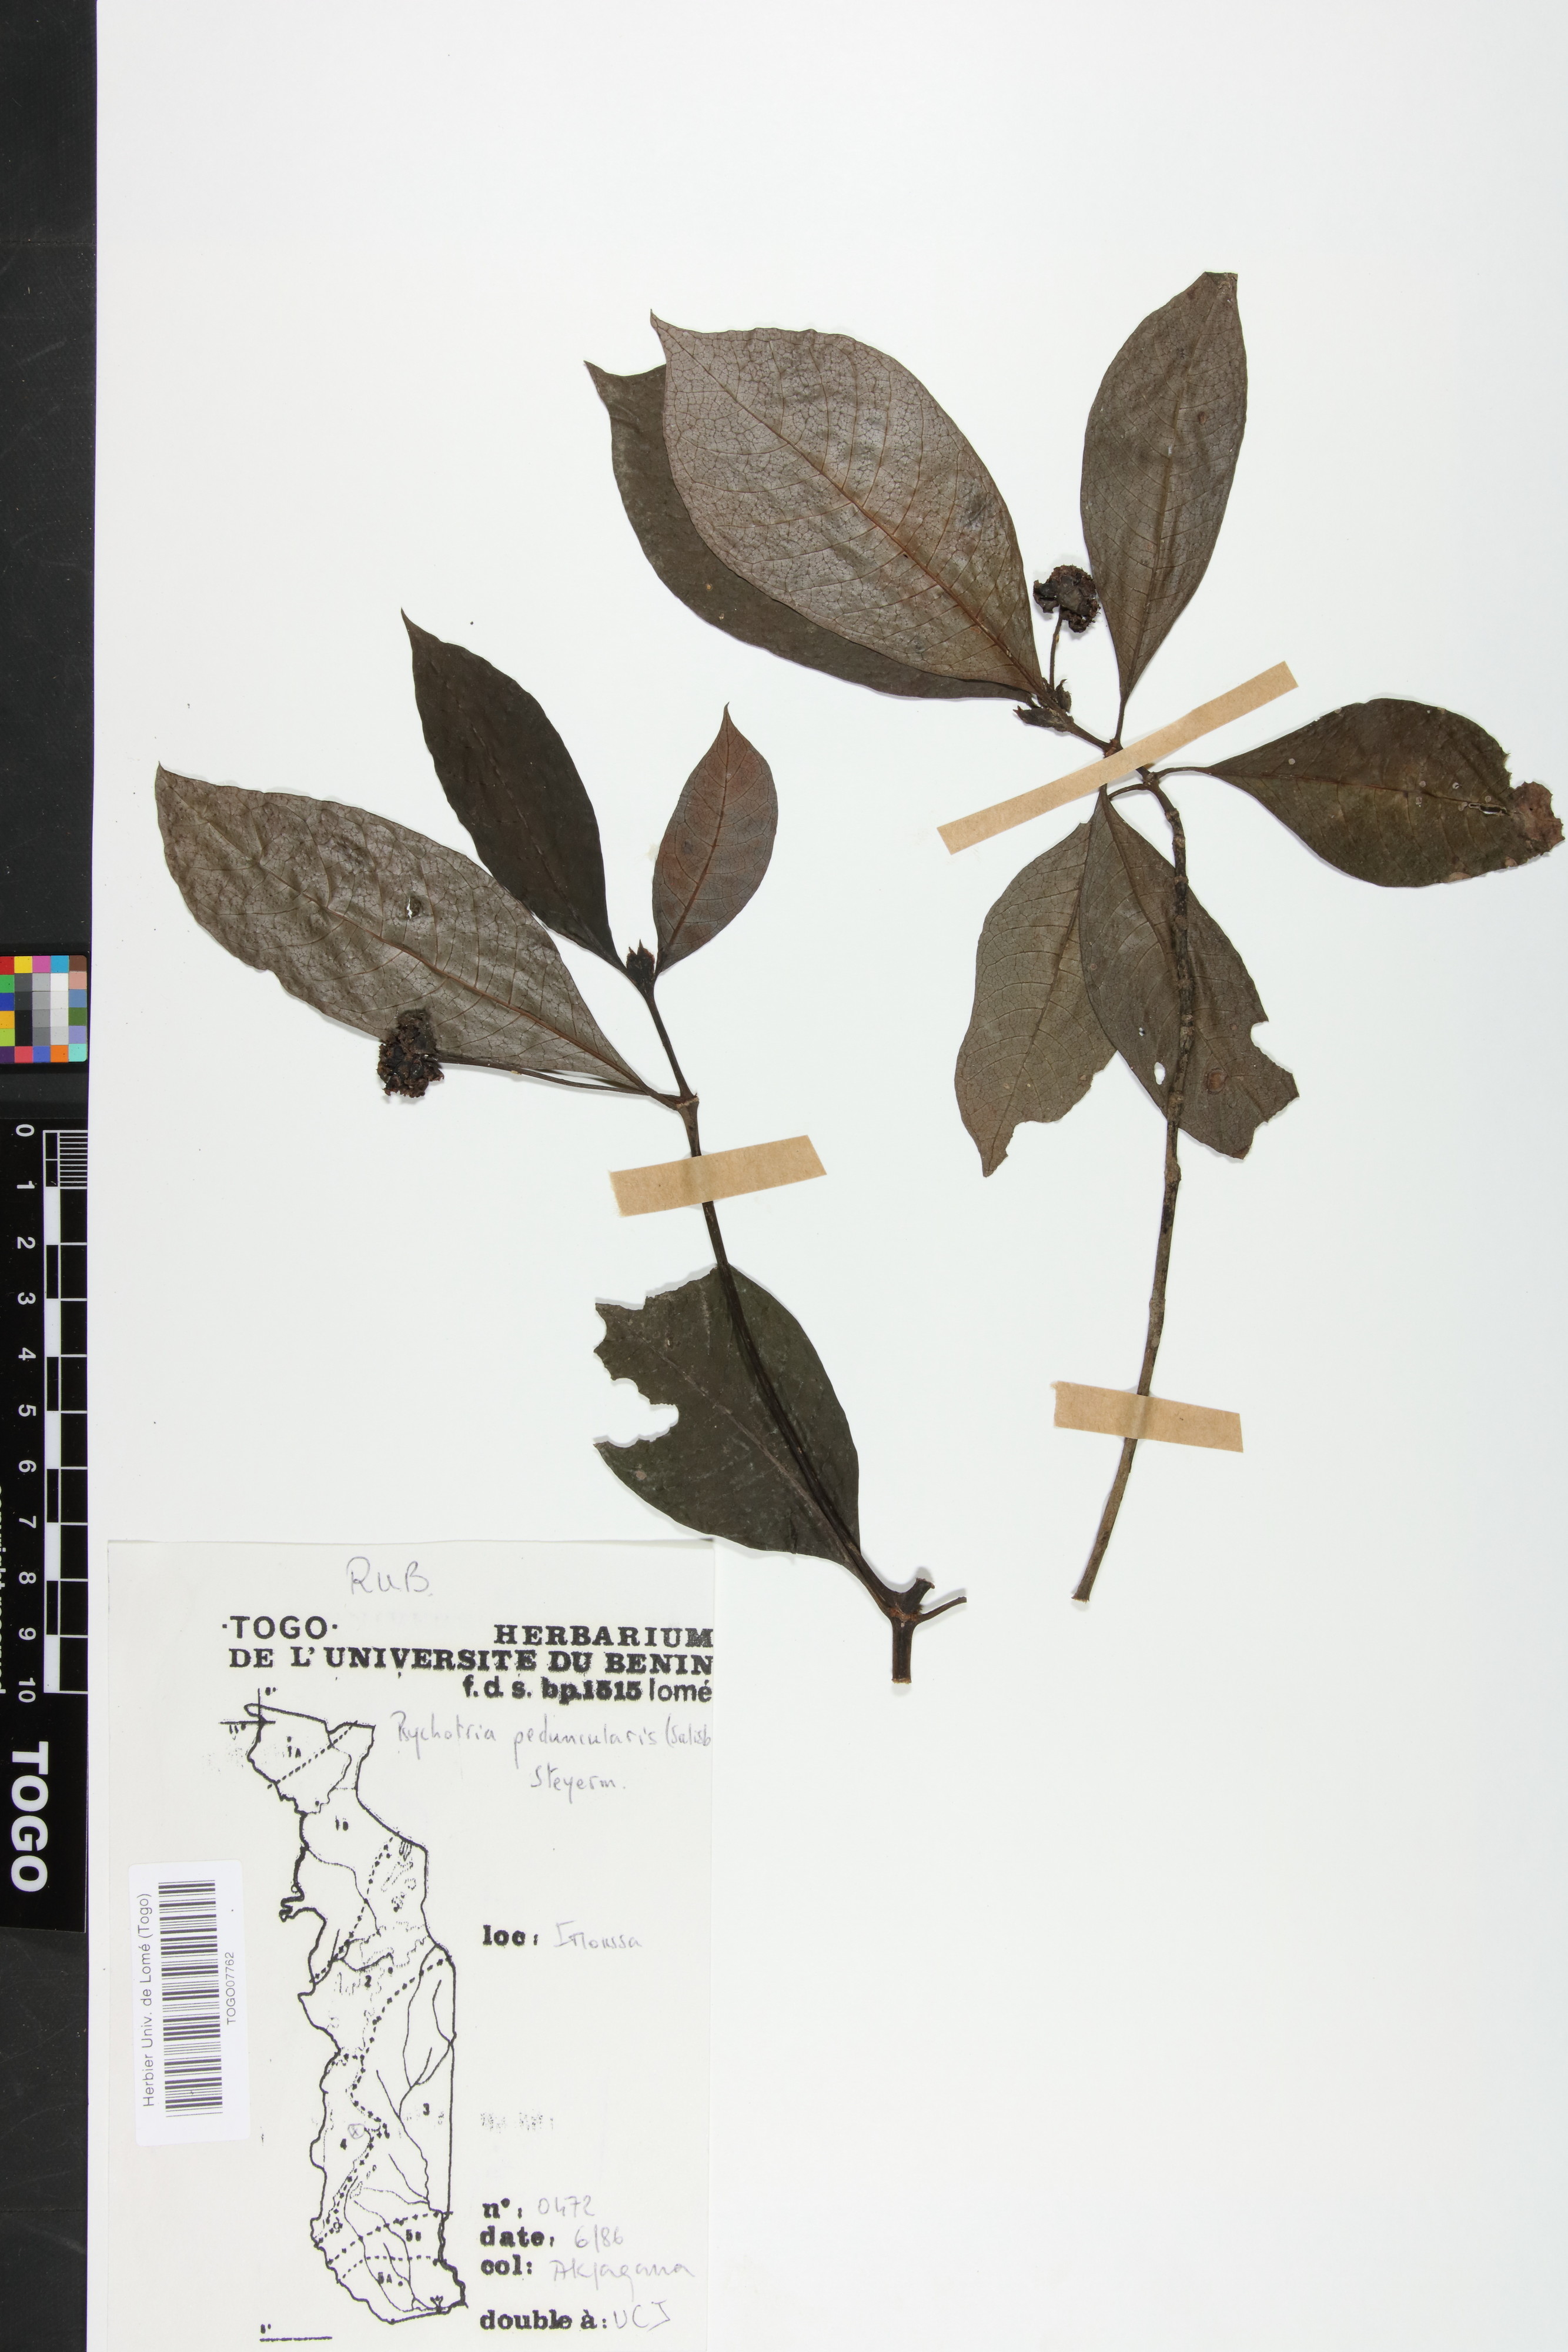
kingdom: Plantae
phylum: Tracheophyta
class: Magnoliopsida
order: Gentianales
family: Rubiaceae
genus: Psychotria
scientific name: Psychotria peduncularis
